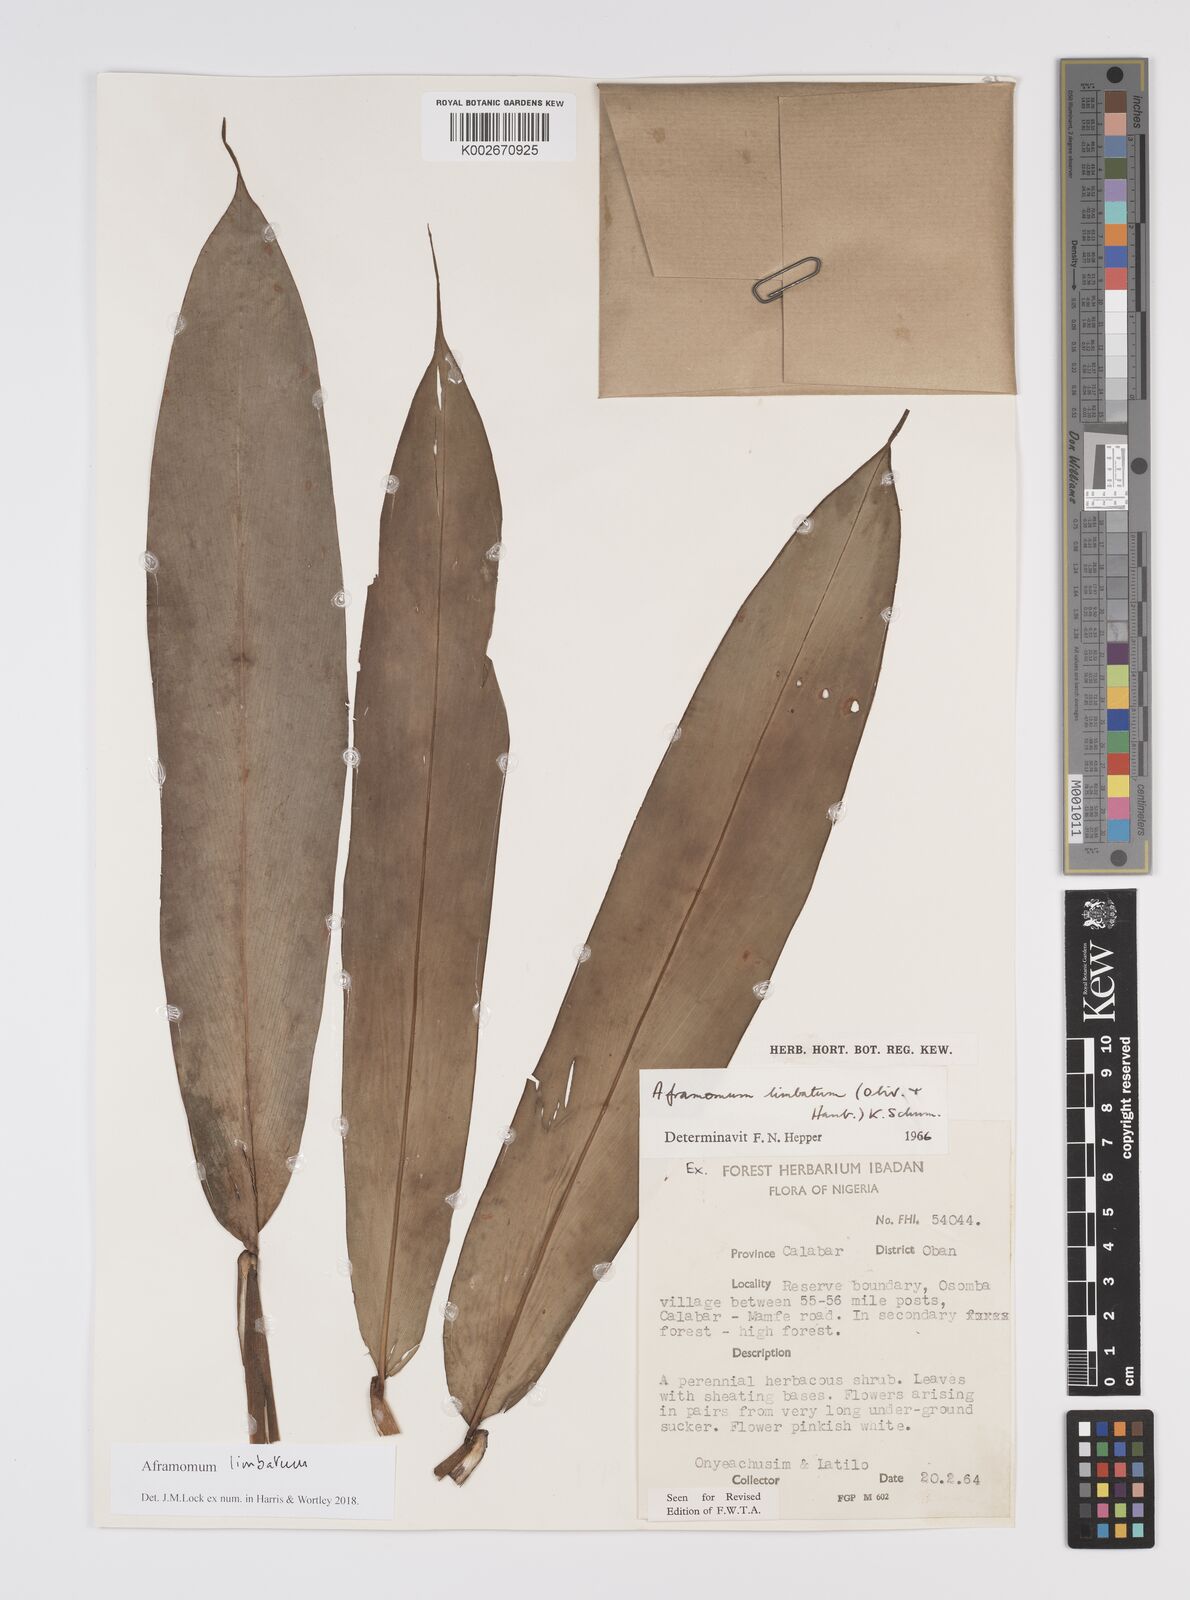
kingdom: Plantae
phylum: Tracheophyta
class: Liliopsida
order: Zingiberales
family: Zingiberaceae
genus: Aframomum
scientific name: Aframomum limbatum
